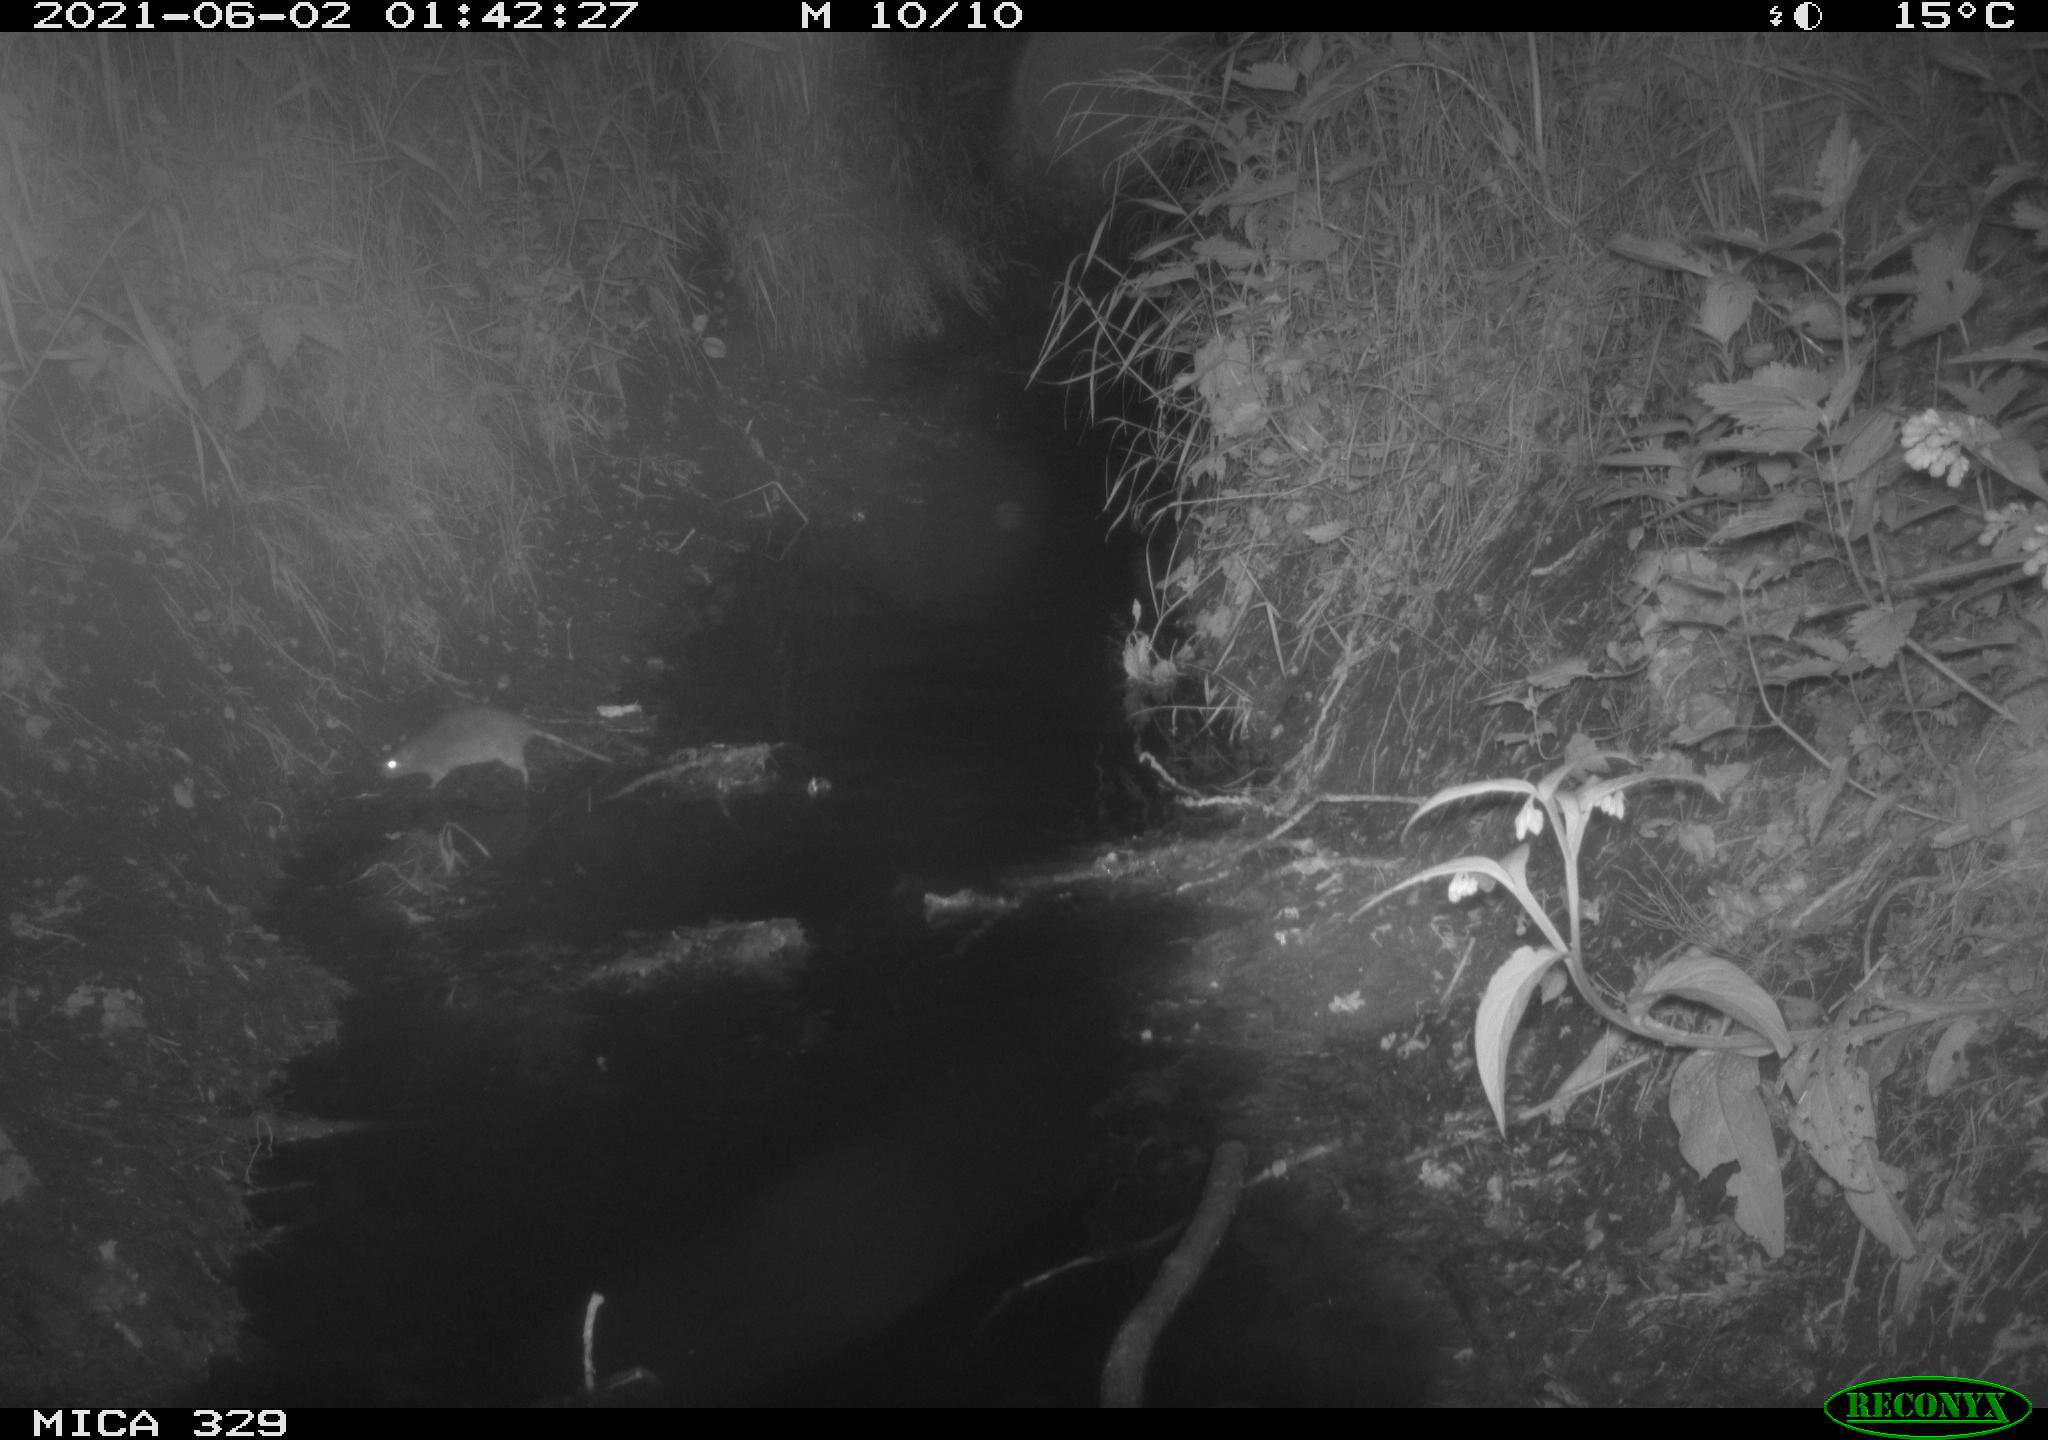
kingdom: Animalia
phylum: Chordata
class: Mammalia
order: Rodentia
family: Muridae
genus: Rattus
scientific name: Rattus norvegicus
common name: Brown rat
